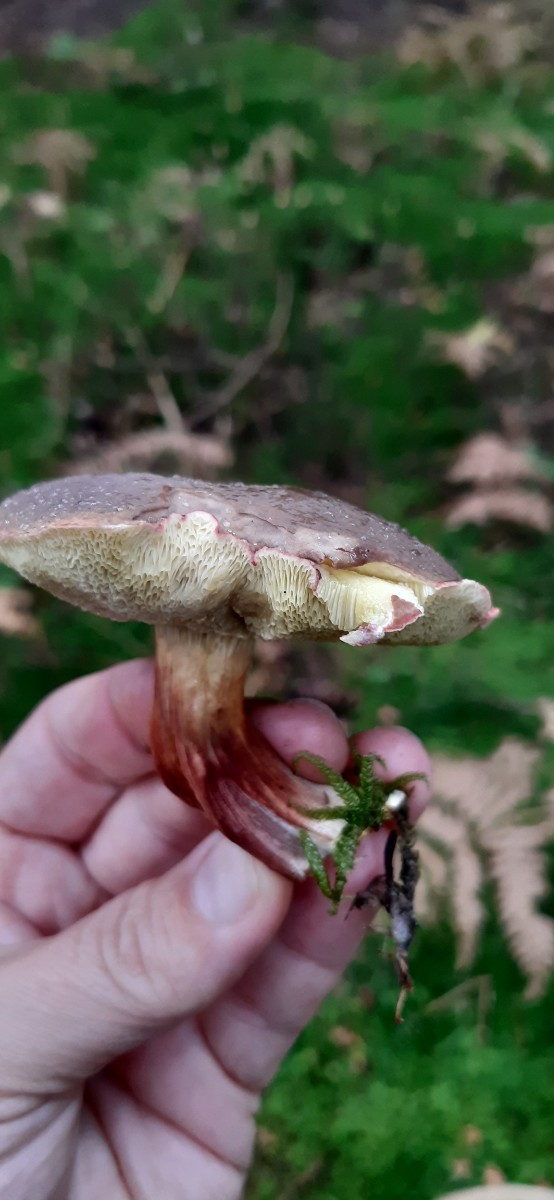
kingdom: Fungi
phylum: Basidiomycota
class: Agaricomycetes
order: Boletales
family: Boletaceae
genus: Xerocomellus
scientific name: Xerocomellus pruinatus
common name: dugget rørhat
